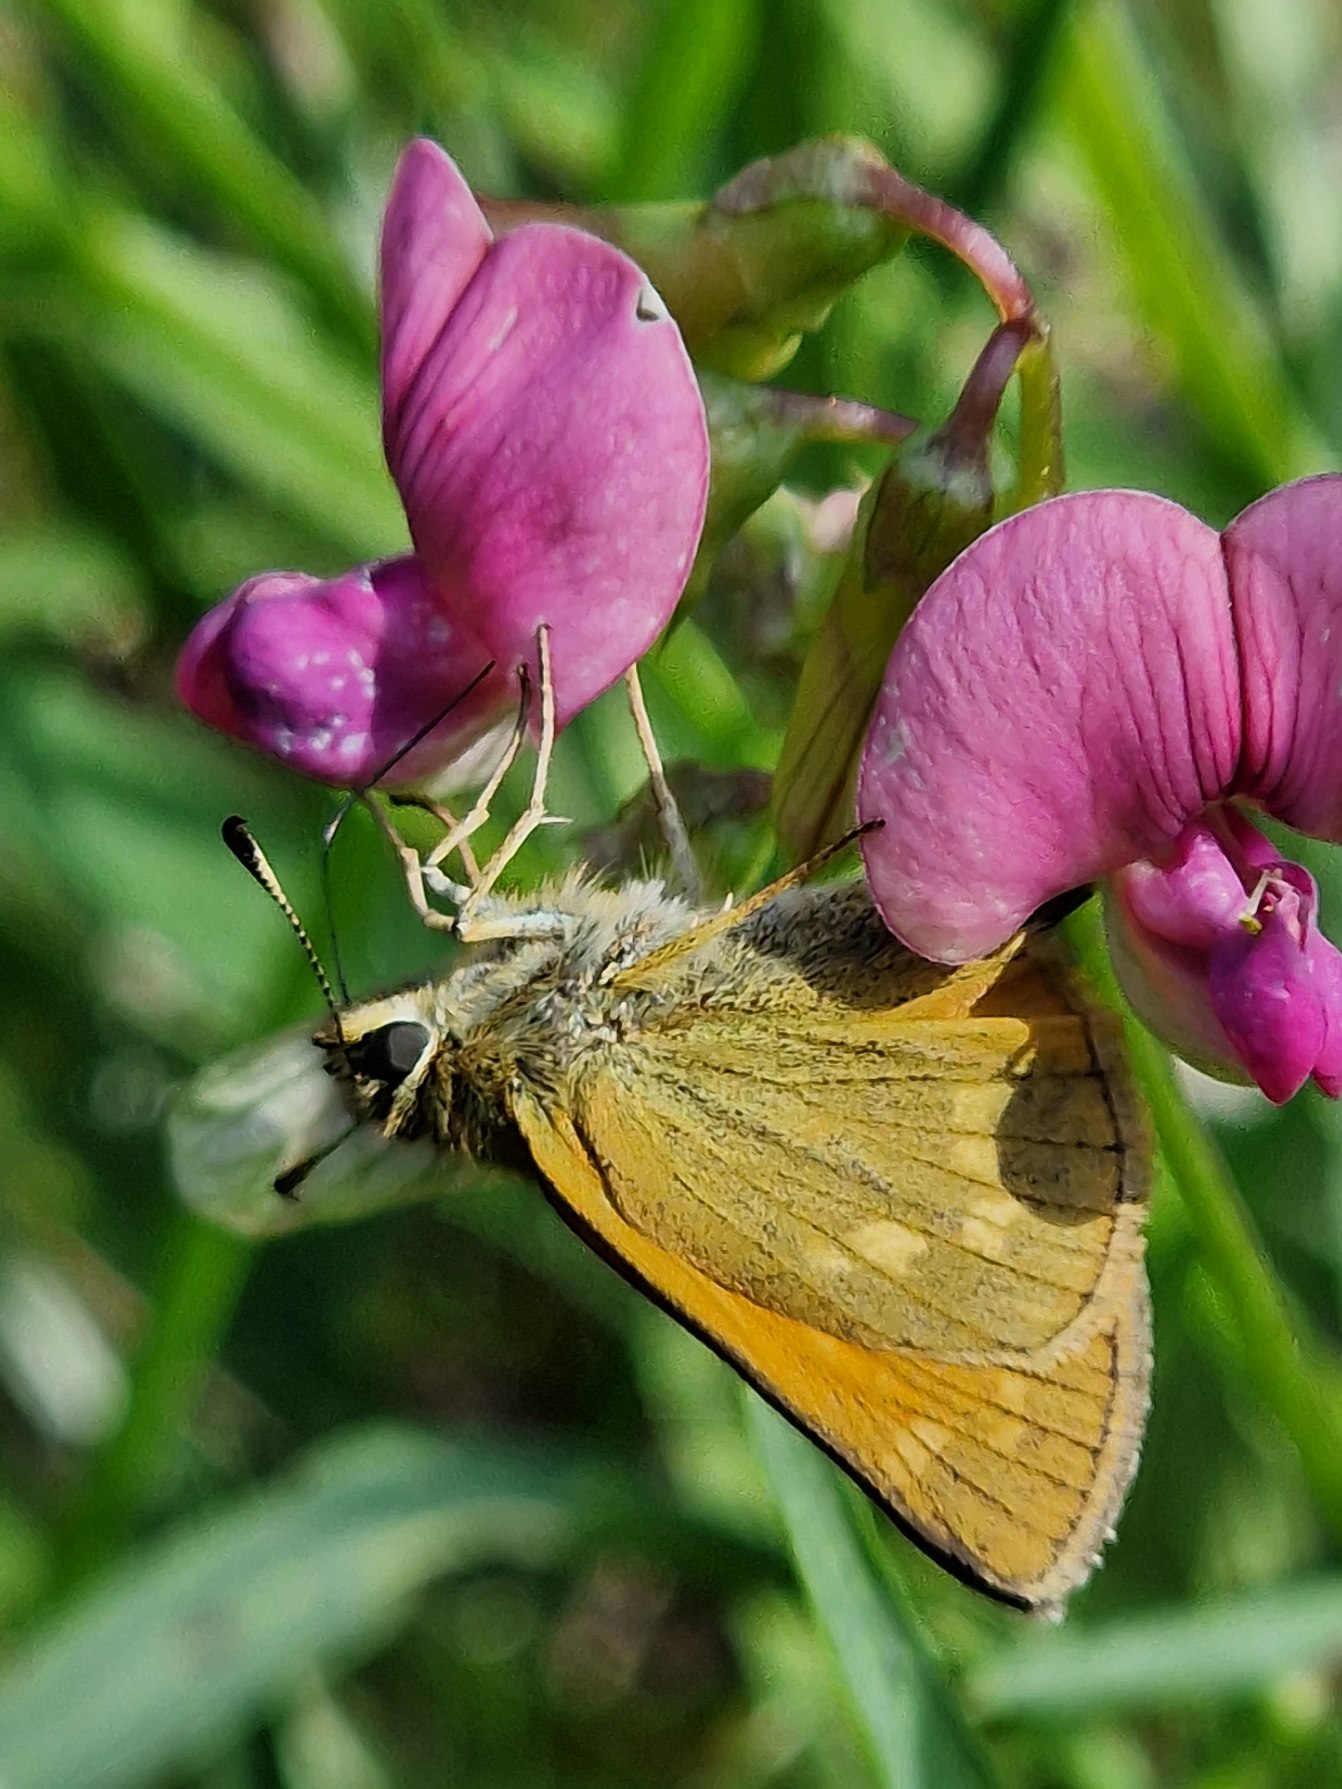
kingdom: Animalia
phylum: Arthropoda
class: Insecta
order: Lepidoptera
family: Hesperiidae
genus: Ochlodes
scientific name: Ochlodes venata
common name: Stor bredpande
